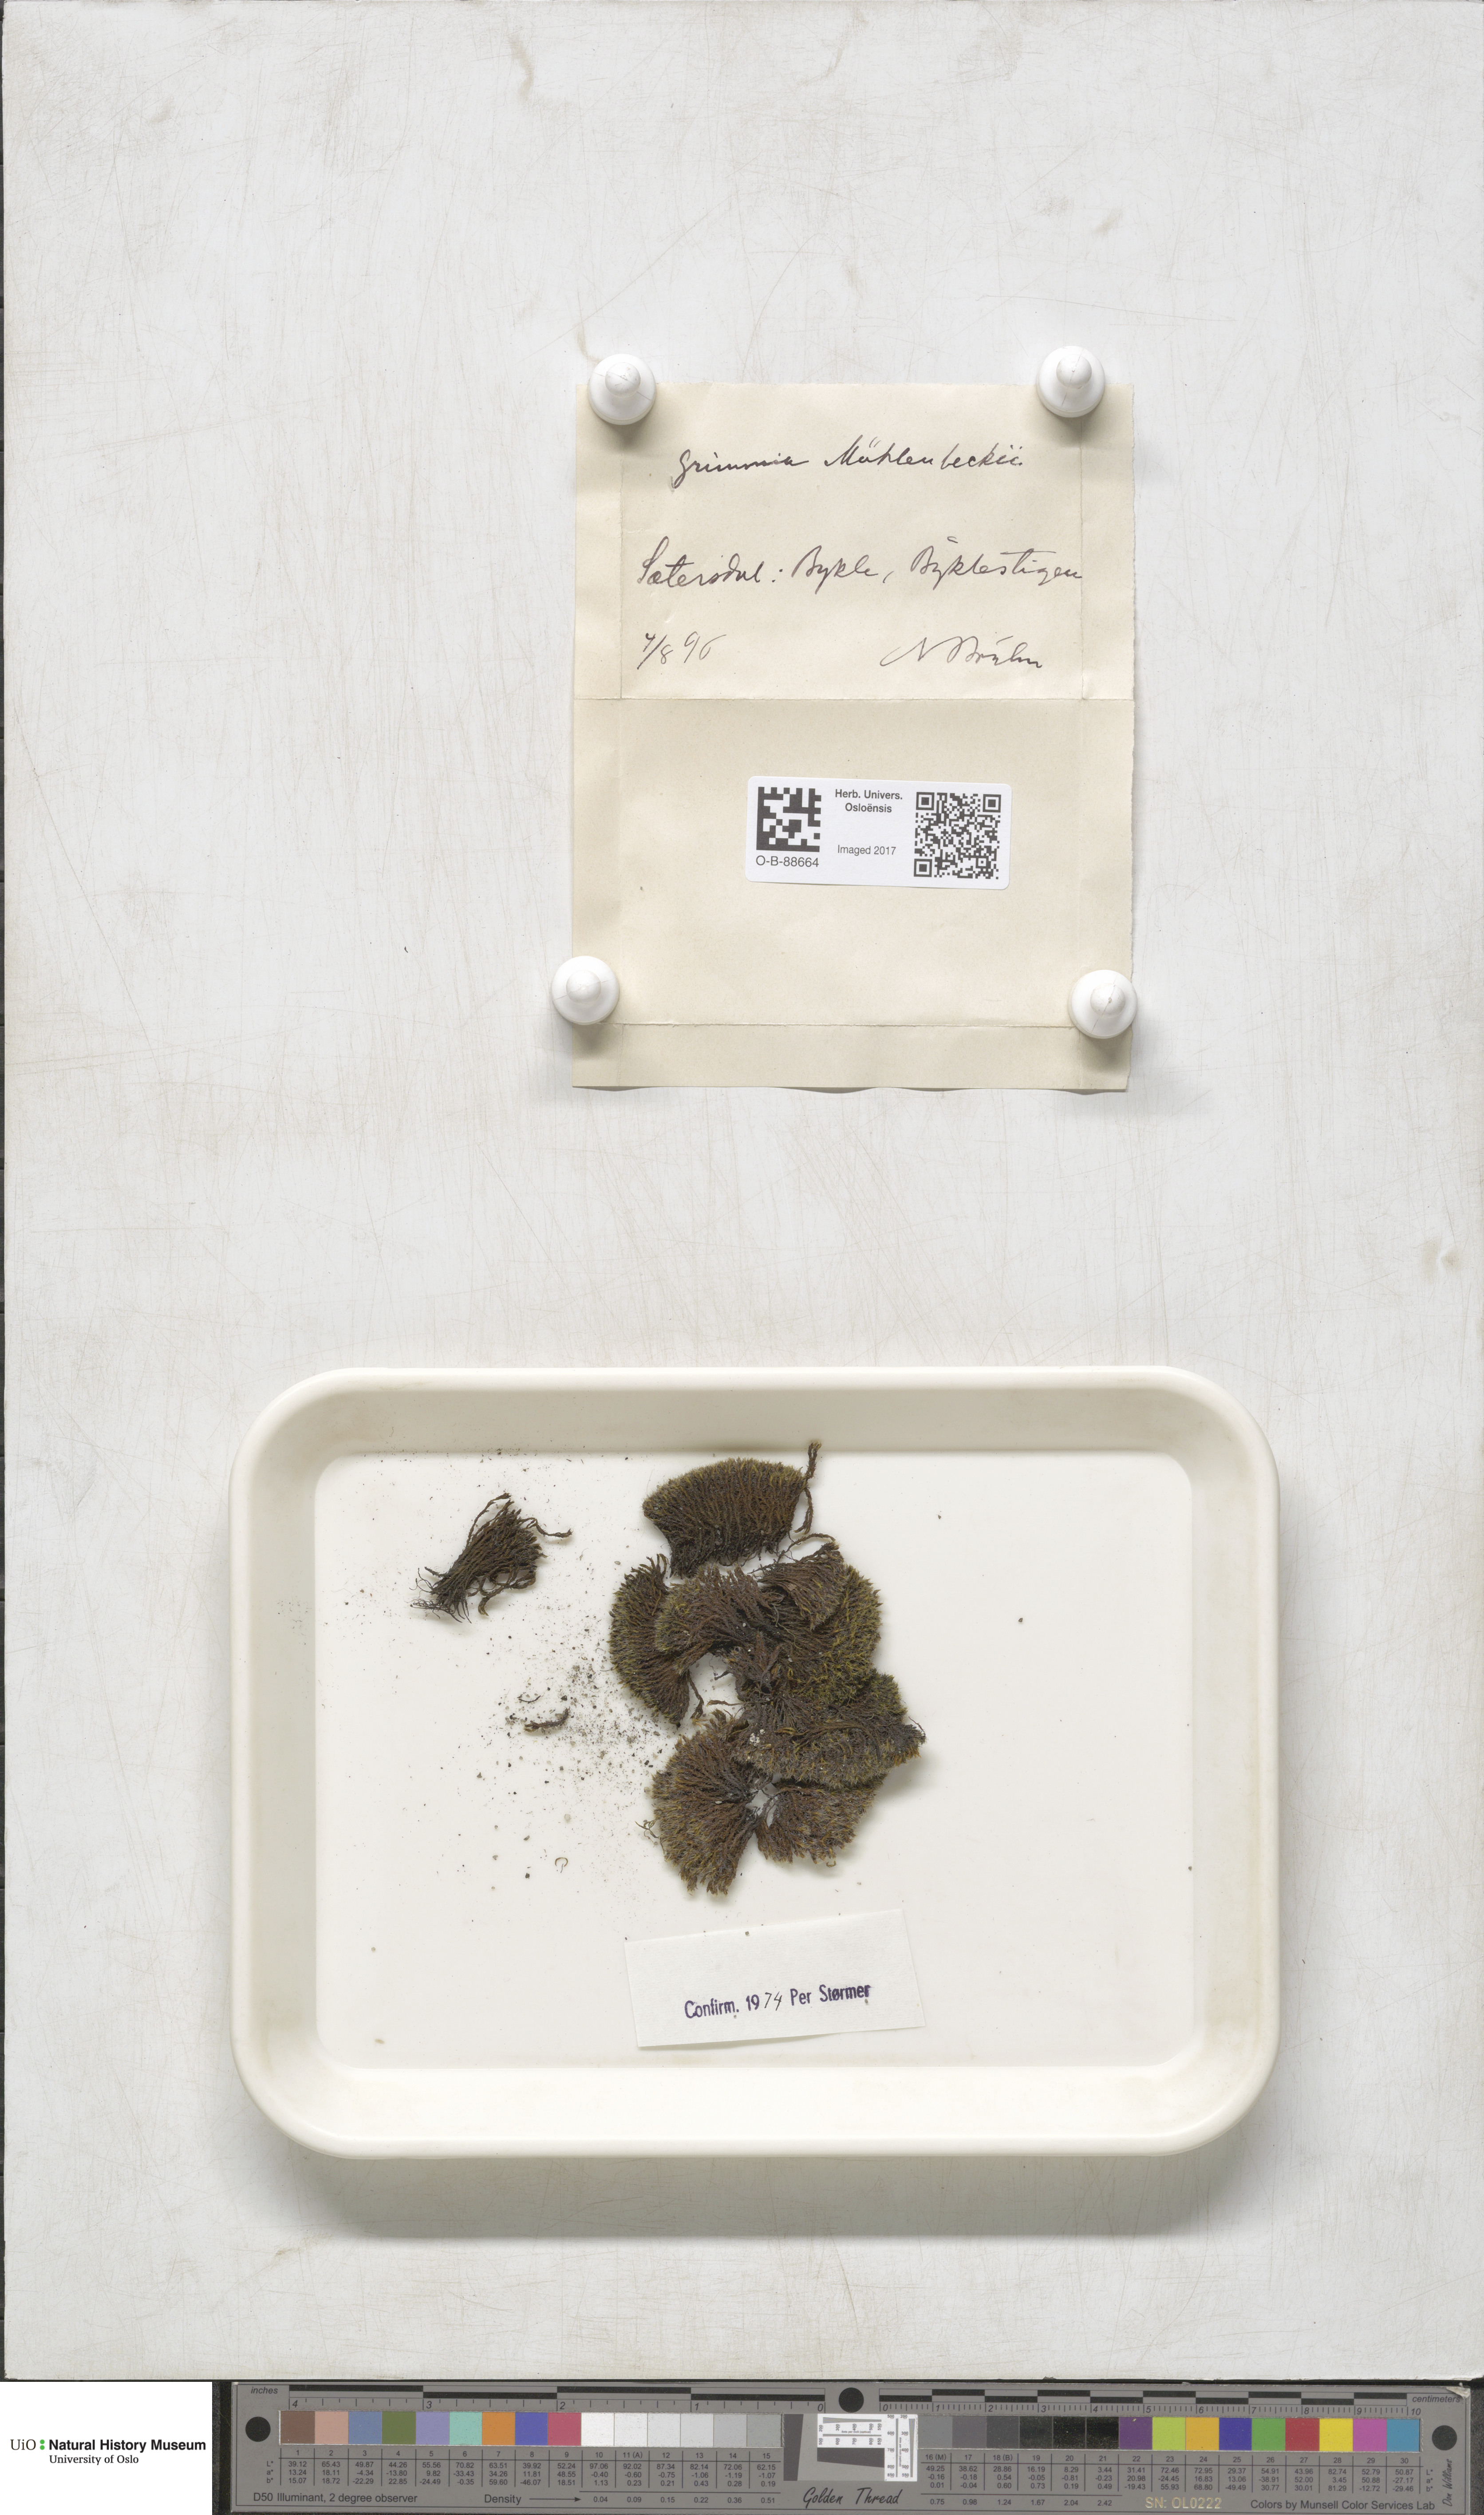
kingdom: Plantae
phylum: Bryophyta
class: Bryopsida
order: Grimmiales
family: Grimmiaceae
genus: Grimmia
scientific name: Grimmia trichophylla
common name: Hair-pointed grimmia
